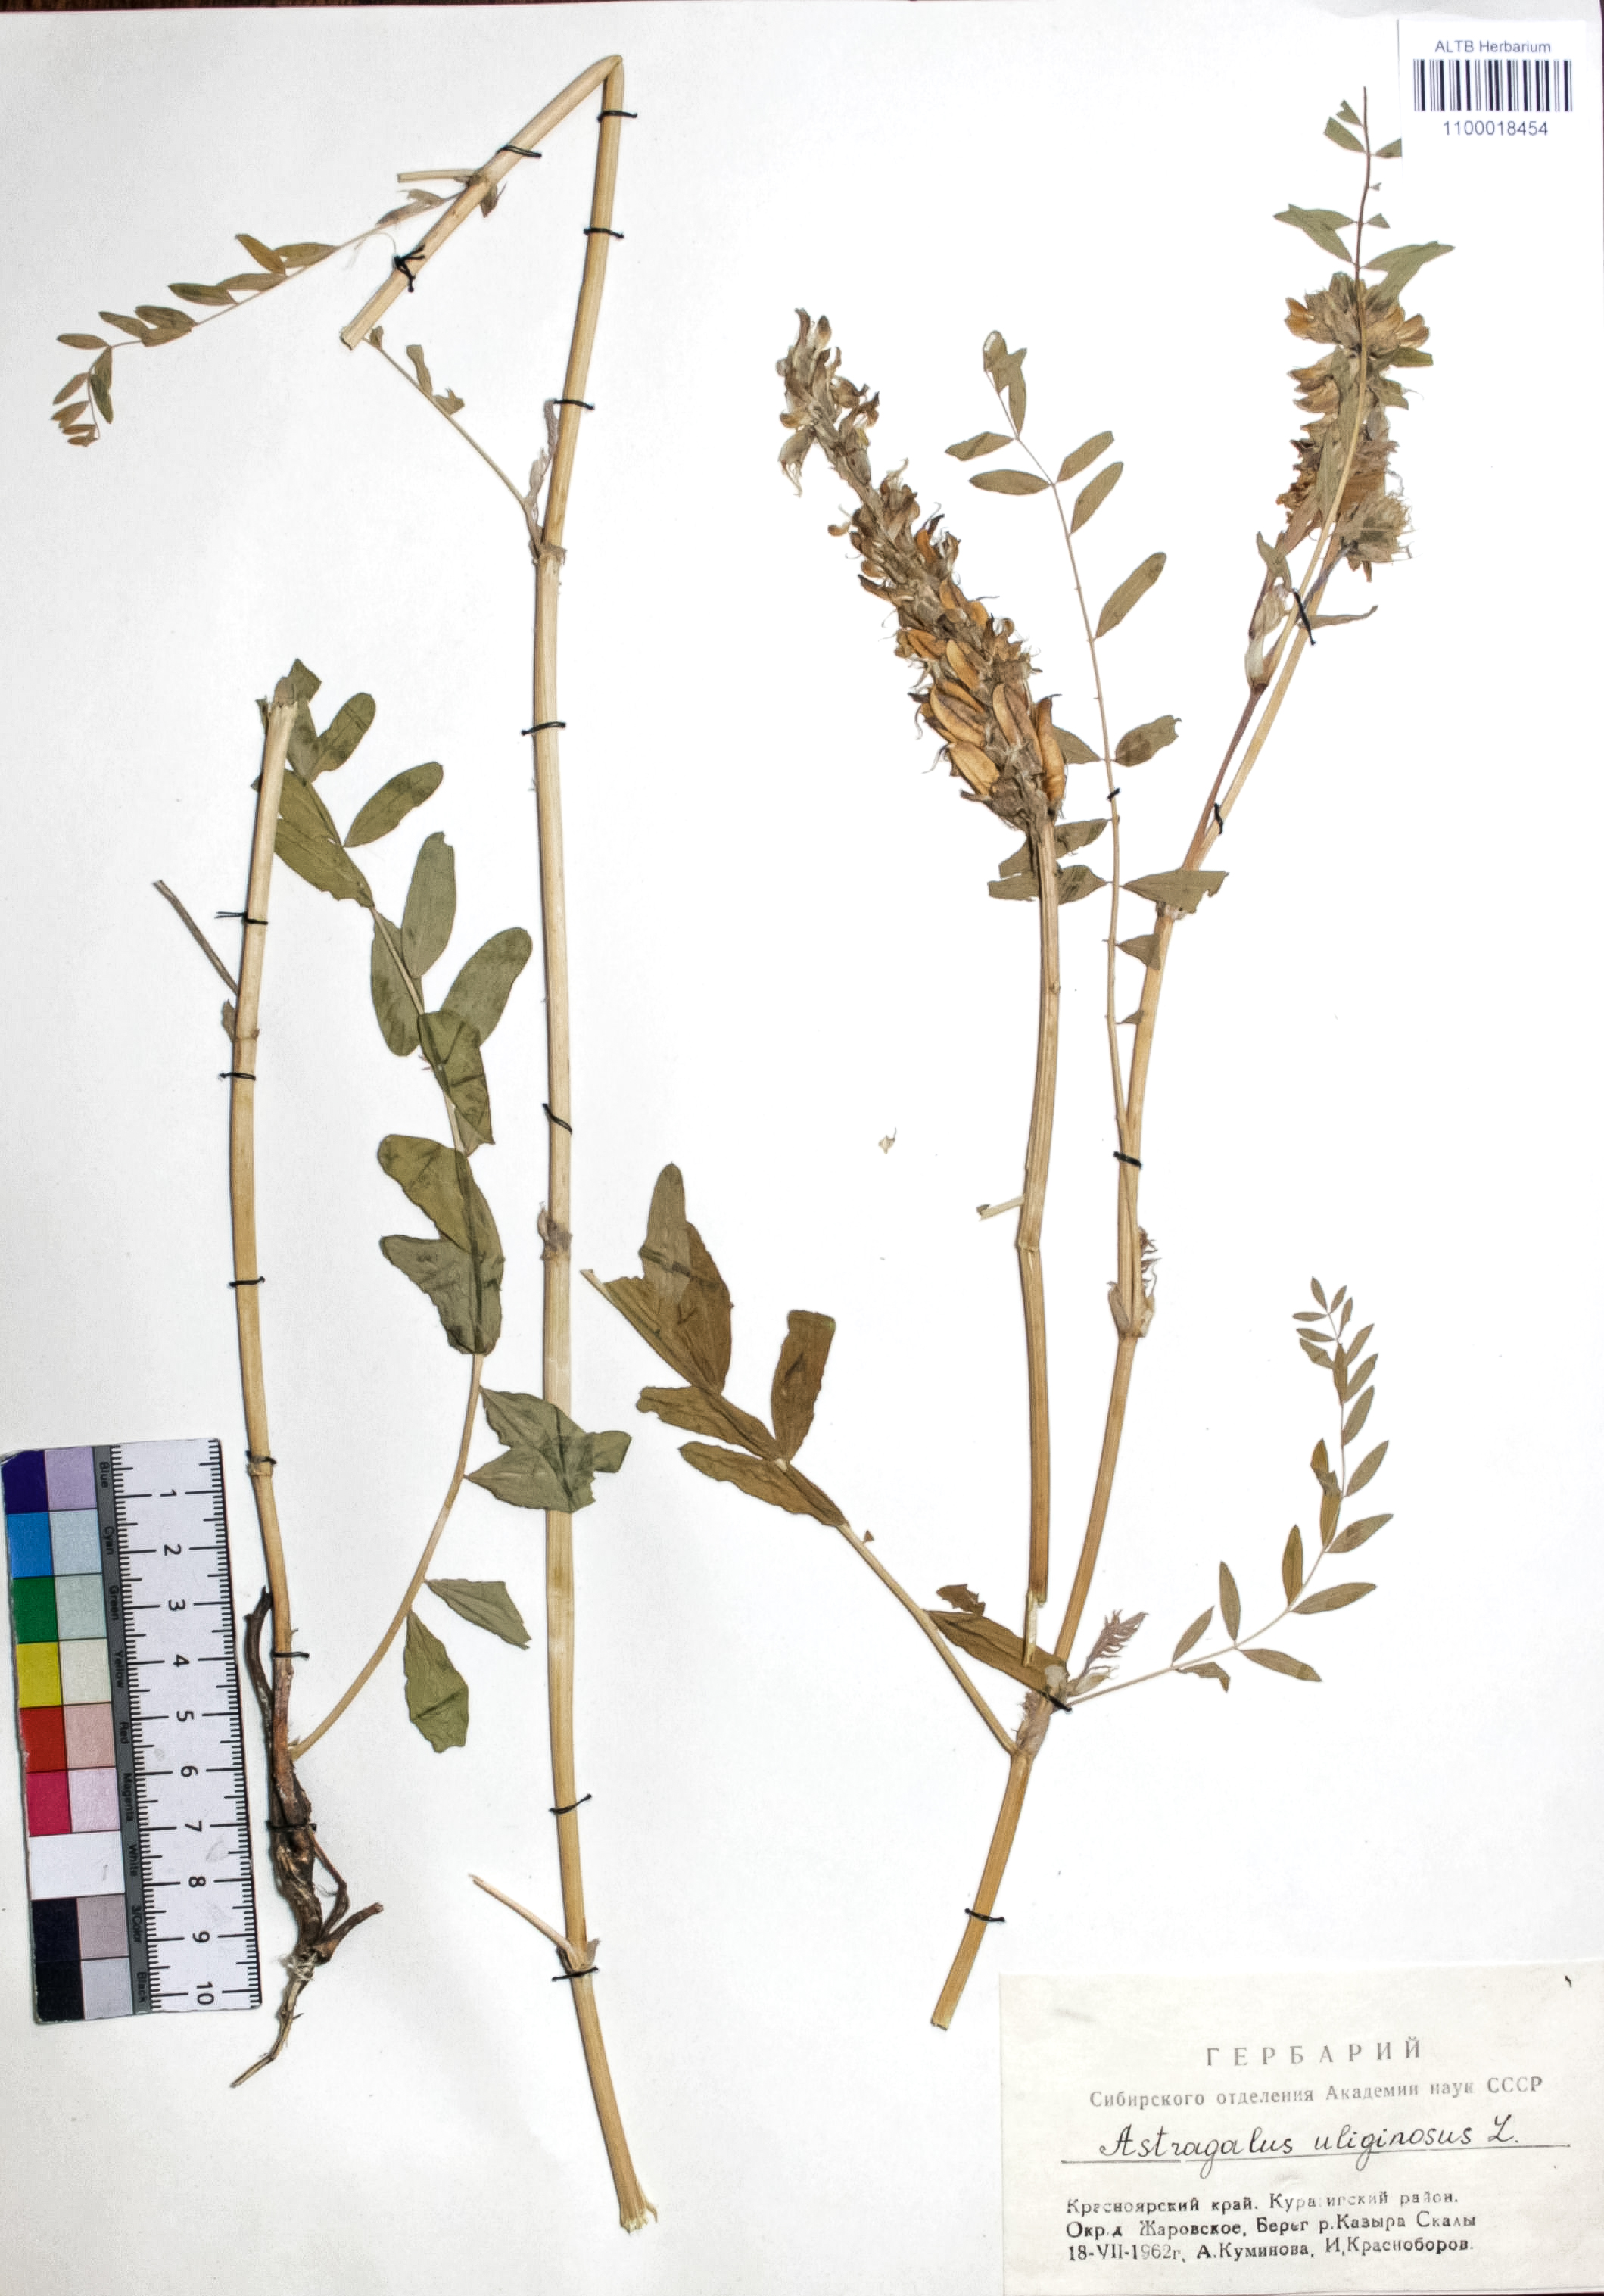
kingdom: Plantae
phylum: Tracheophyta
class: Magnoliopsida
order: Fabales
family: Fabaceae
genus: Astragalus
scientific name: Astragalus uliginosus
